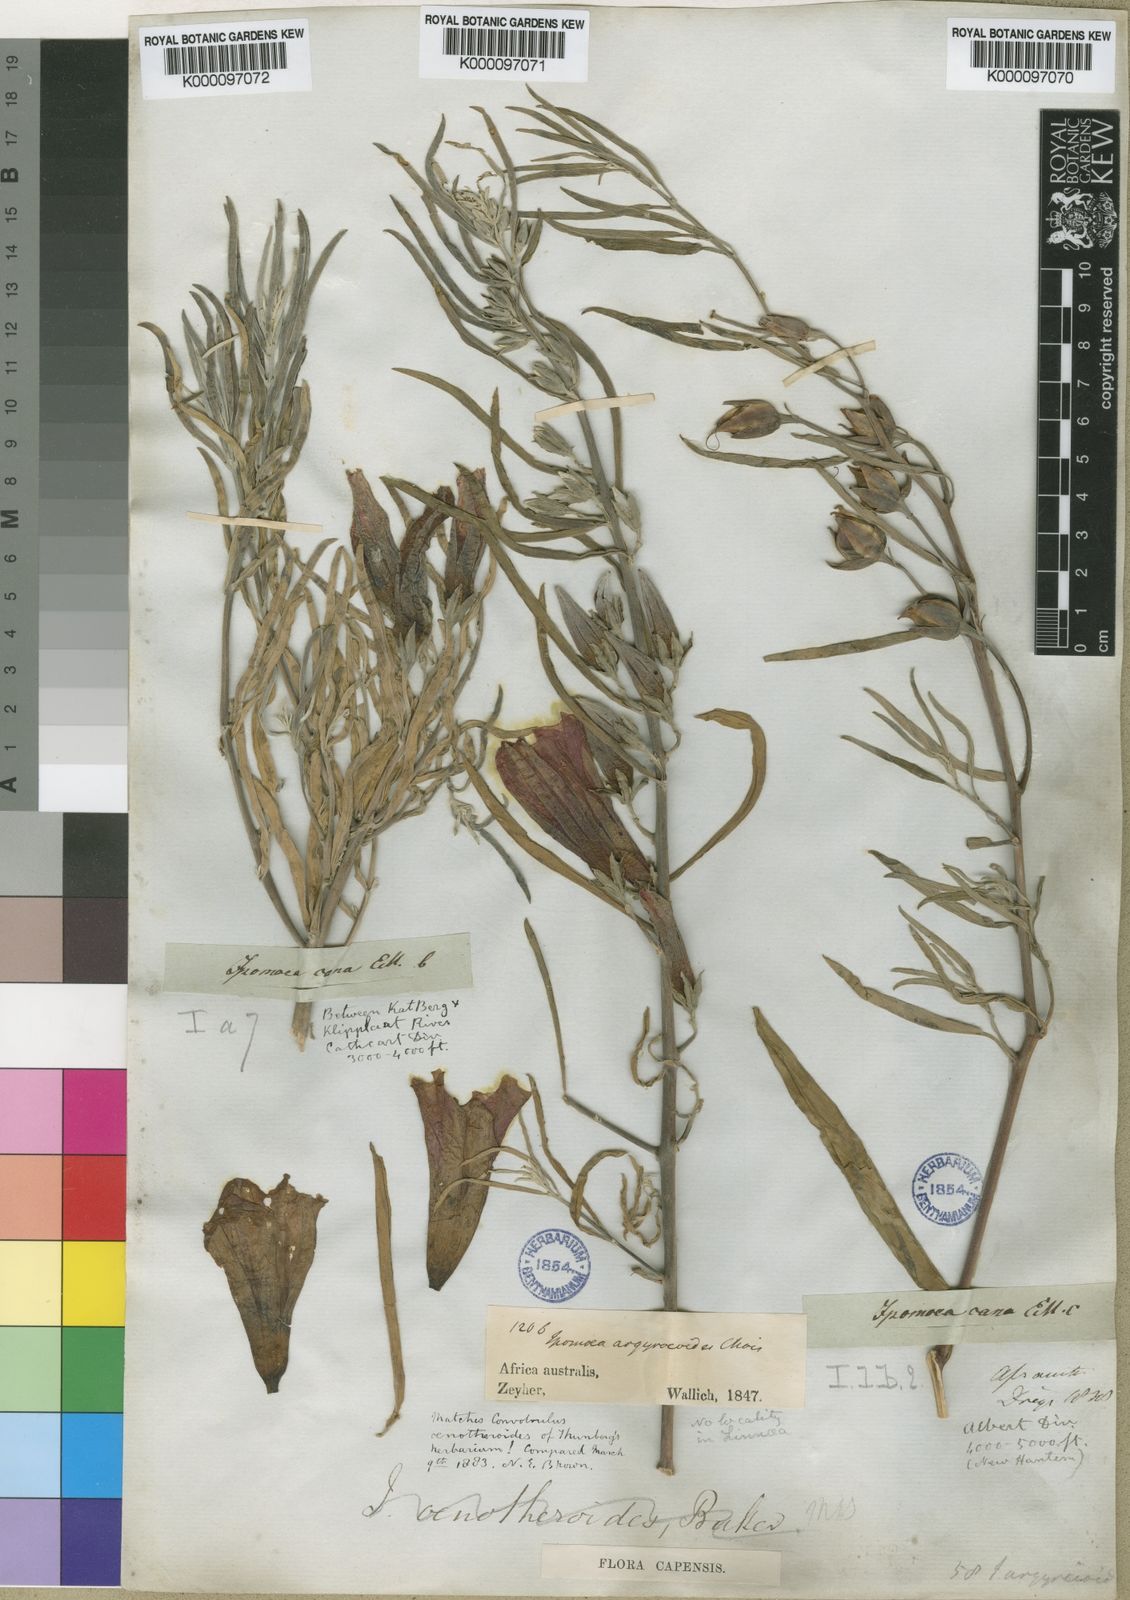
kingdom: Plantae
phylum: Tracheophyta
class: Magnoliopsida
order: Solanales
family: Convolvulaceae
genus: Ipomoea
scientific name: Ipomoea oenotheroides
